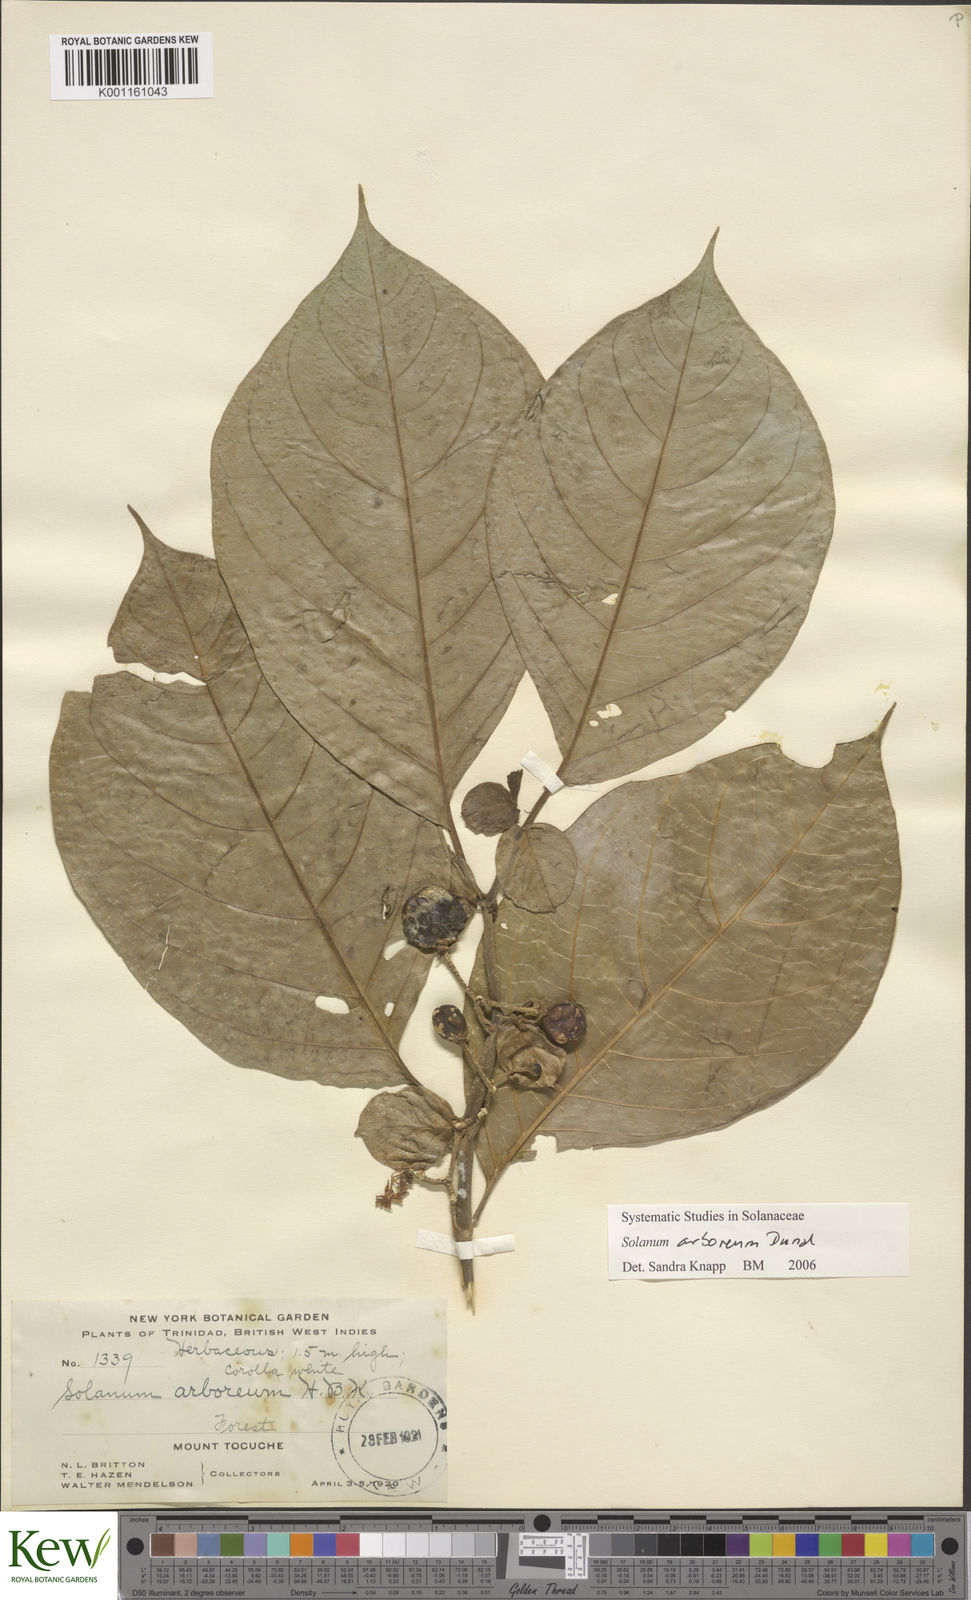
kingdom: Plantae
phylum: Tracheophyta
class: Magnoliopsida
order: Solanales
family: Solanaceae
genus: Solanum
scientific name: Solanum arboreum
